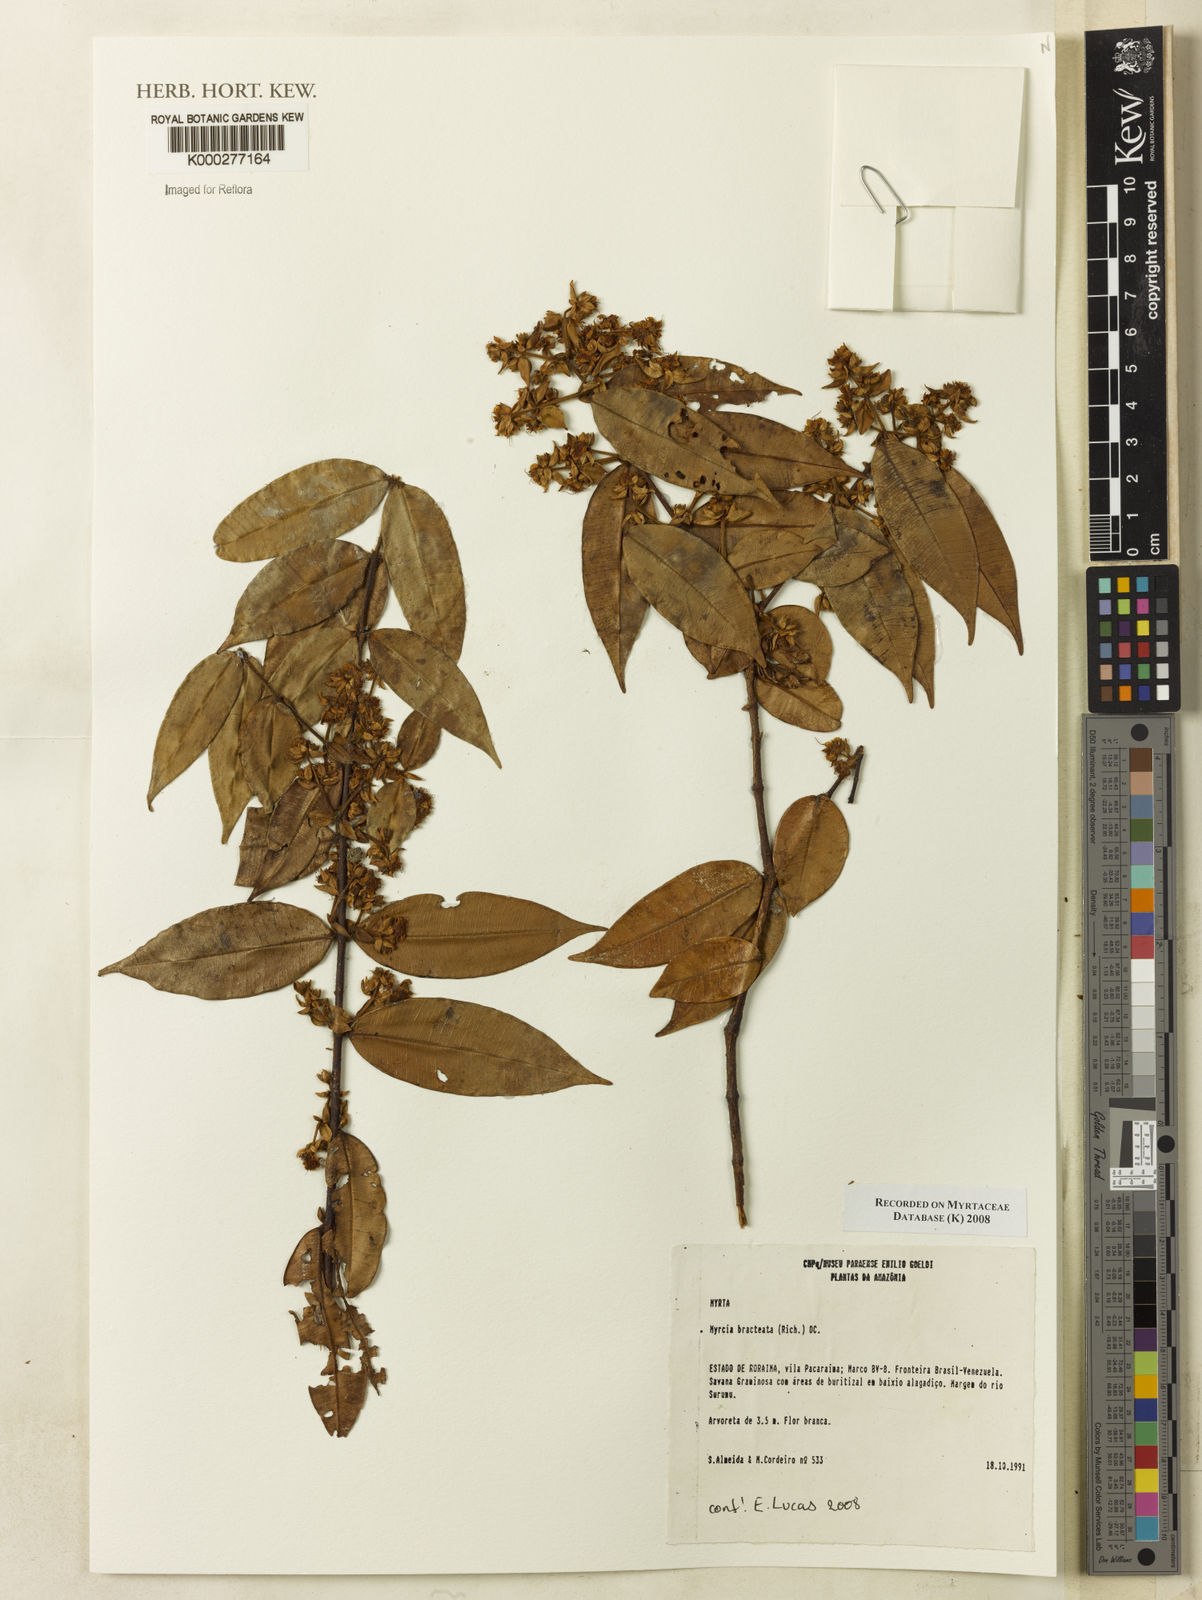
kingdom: Plantae
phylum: Tracheophyta
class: Magnoliopsida
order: Myrtales
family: Myrtaceae
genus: Myrcia
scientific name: Myrcia bracteata
